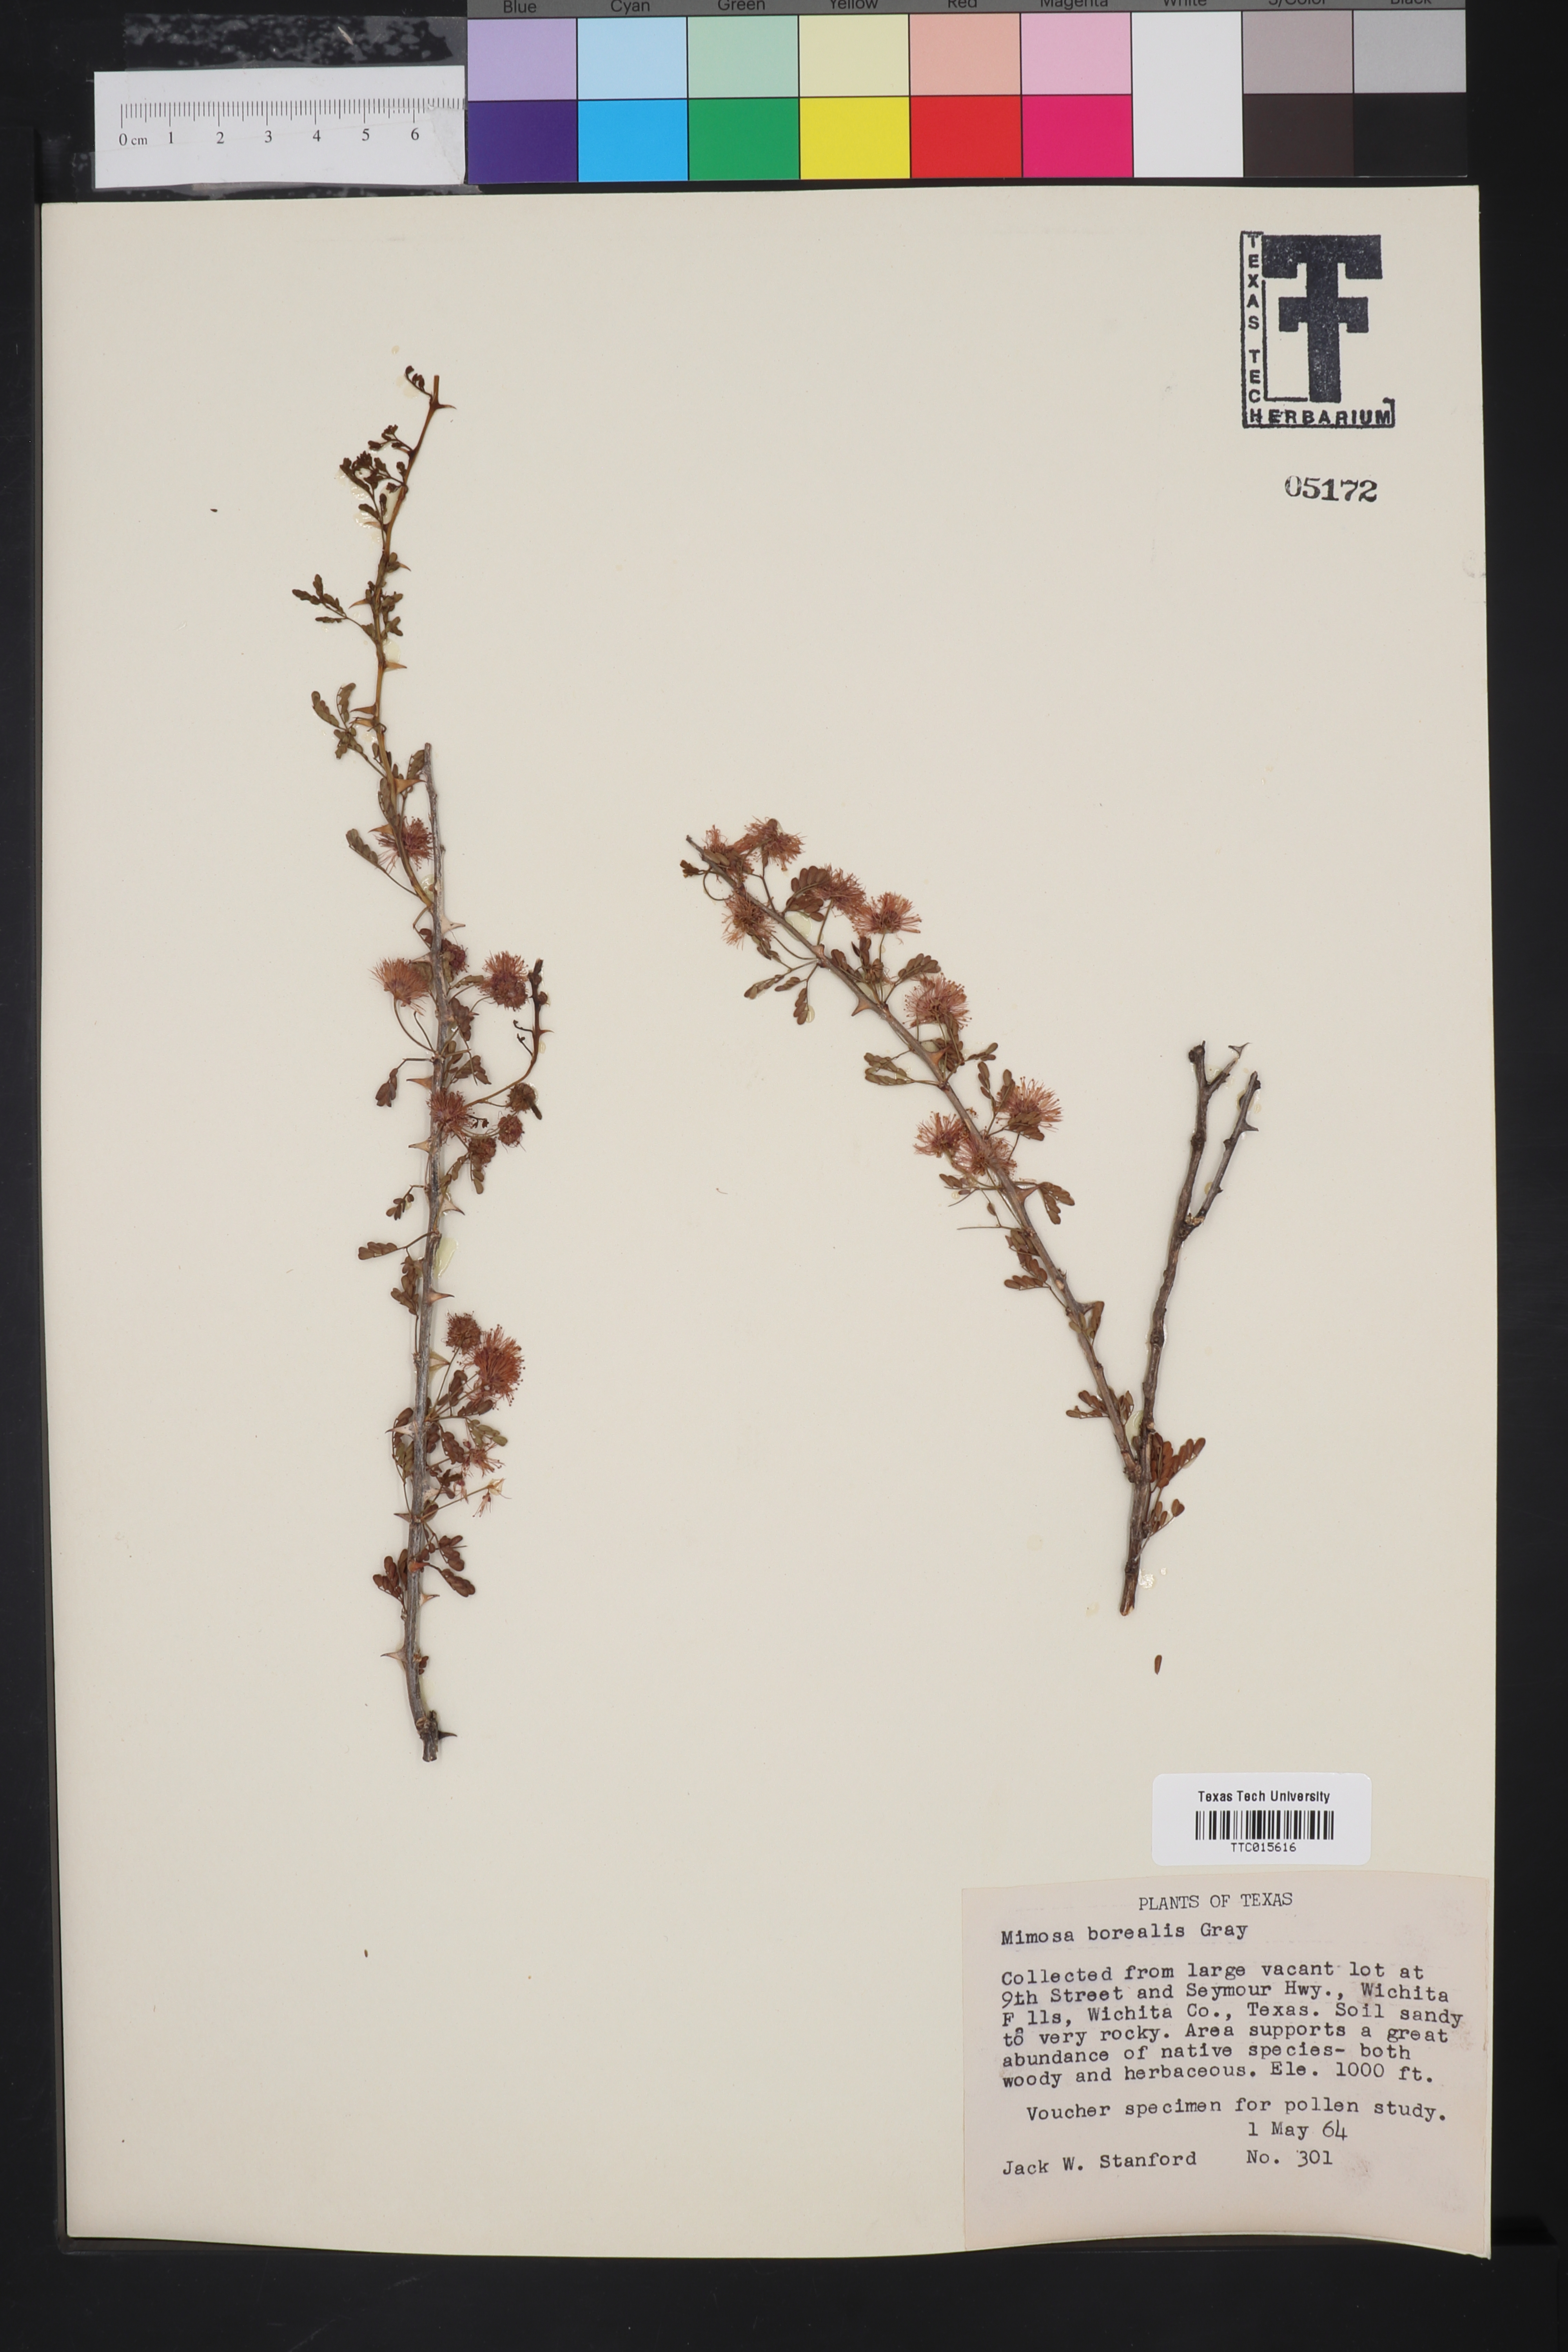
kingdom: Plantae
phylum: Tracheophyta
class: Magnoliopsida
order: Fabales
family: Fabaceae
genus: Mimosa
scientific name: Mimosa borealis
